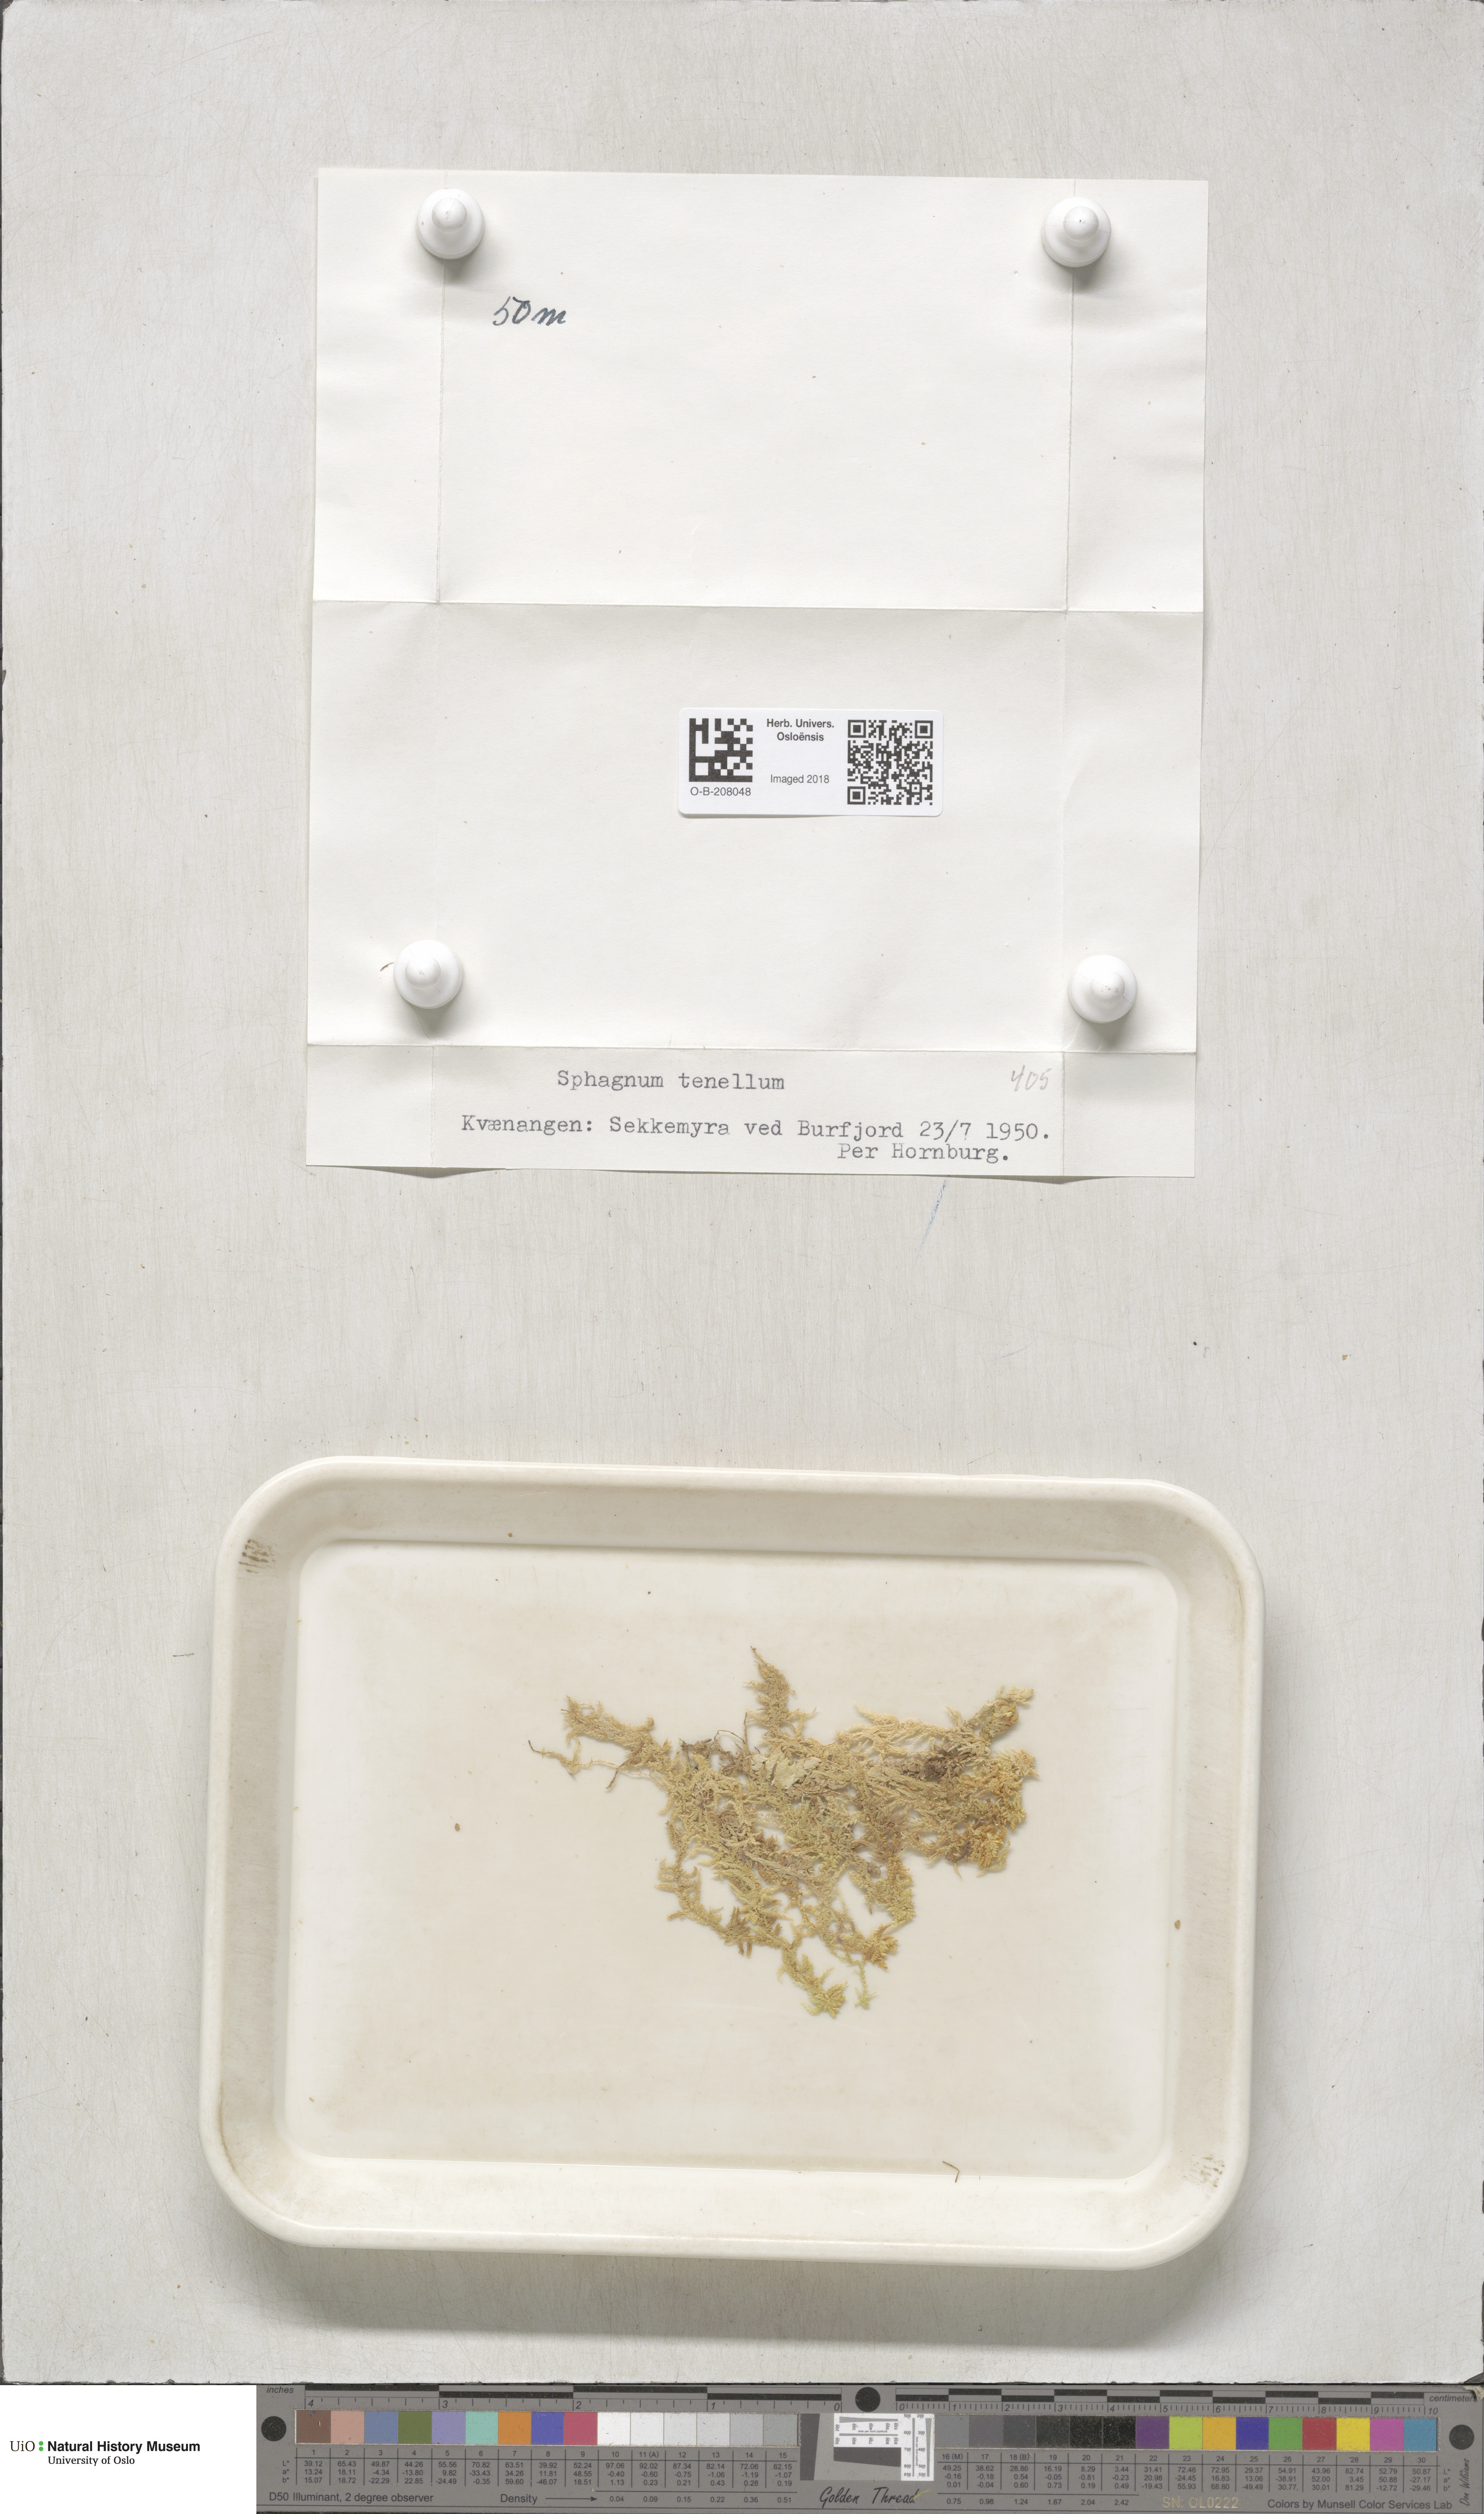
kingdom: Plantae
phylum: Bryophyta
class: Sphagnopsida
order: Sphagnales
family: Sphagnaceae
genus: Sphagnum
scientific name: Sphagnum tenellum
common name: Soft bog-moss
